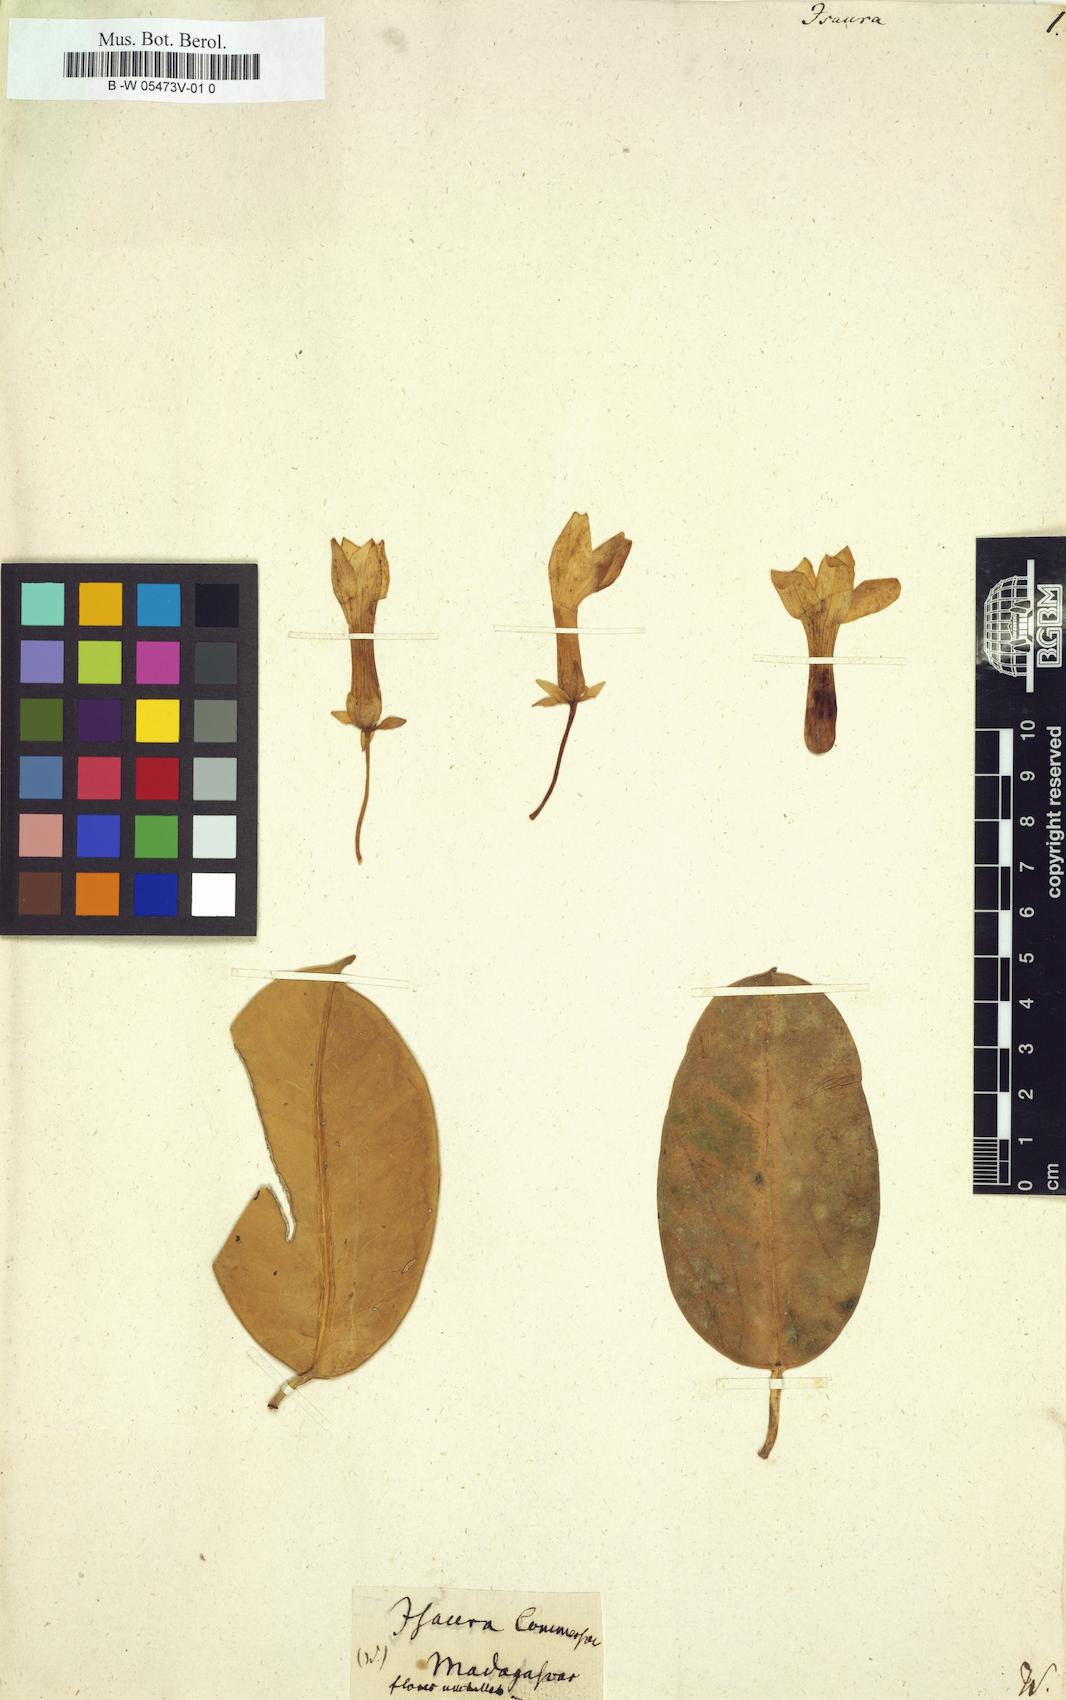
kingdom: Animalia
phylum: Cnidaria
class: Anthozoa
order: Zoantharia
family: Zoanthidae
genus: Isaura
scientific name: Isaura
